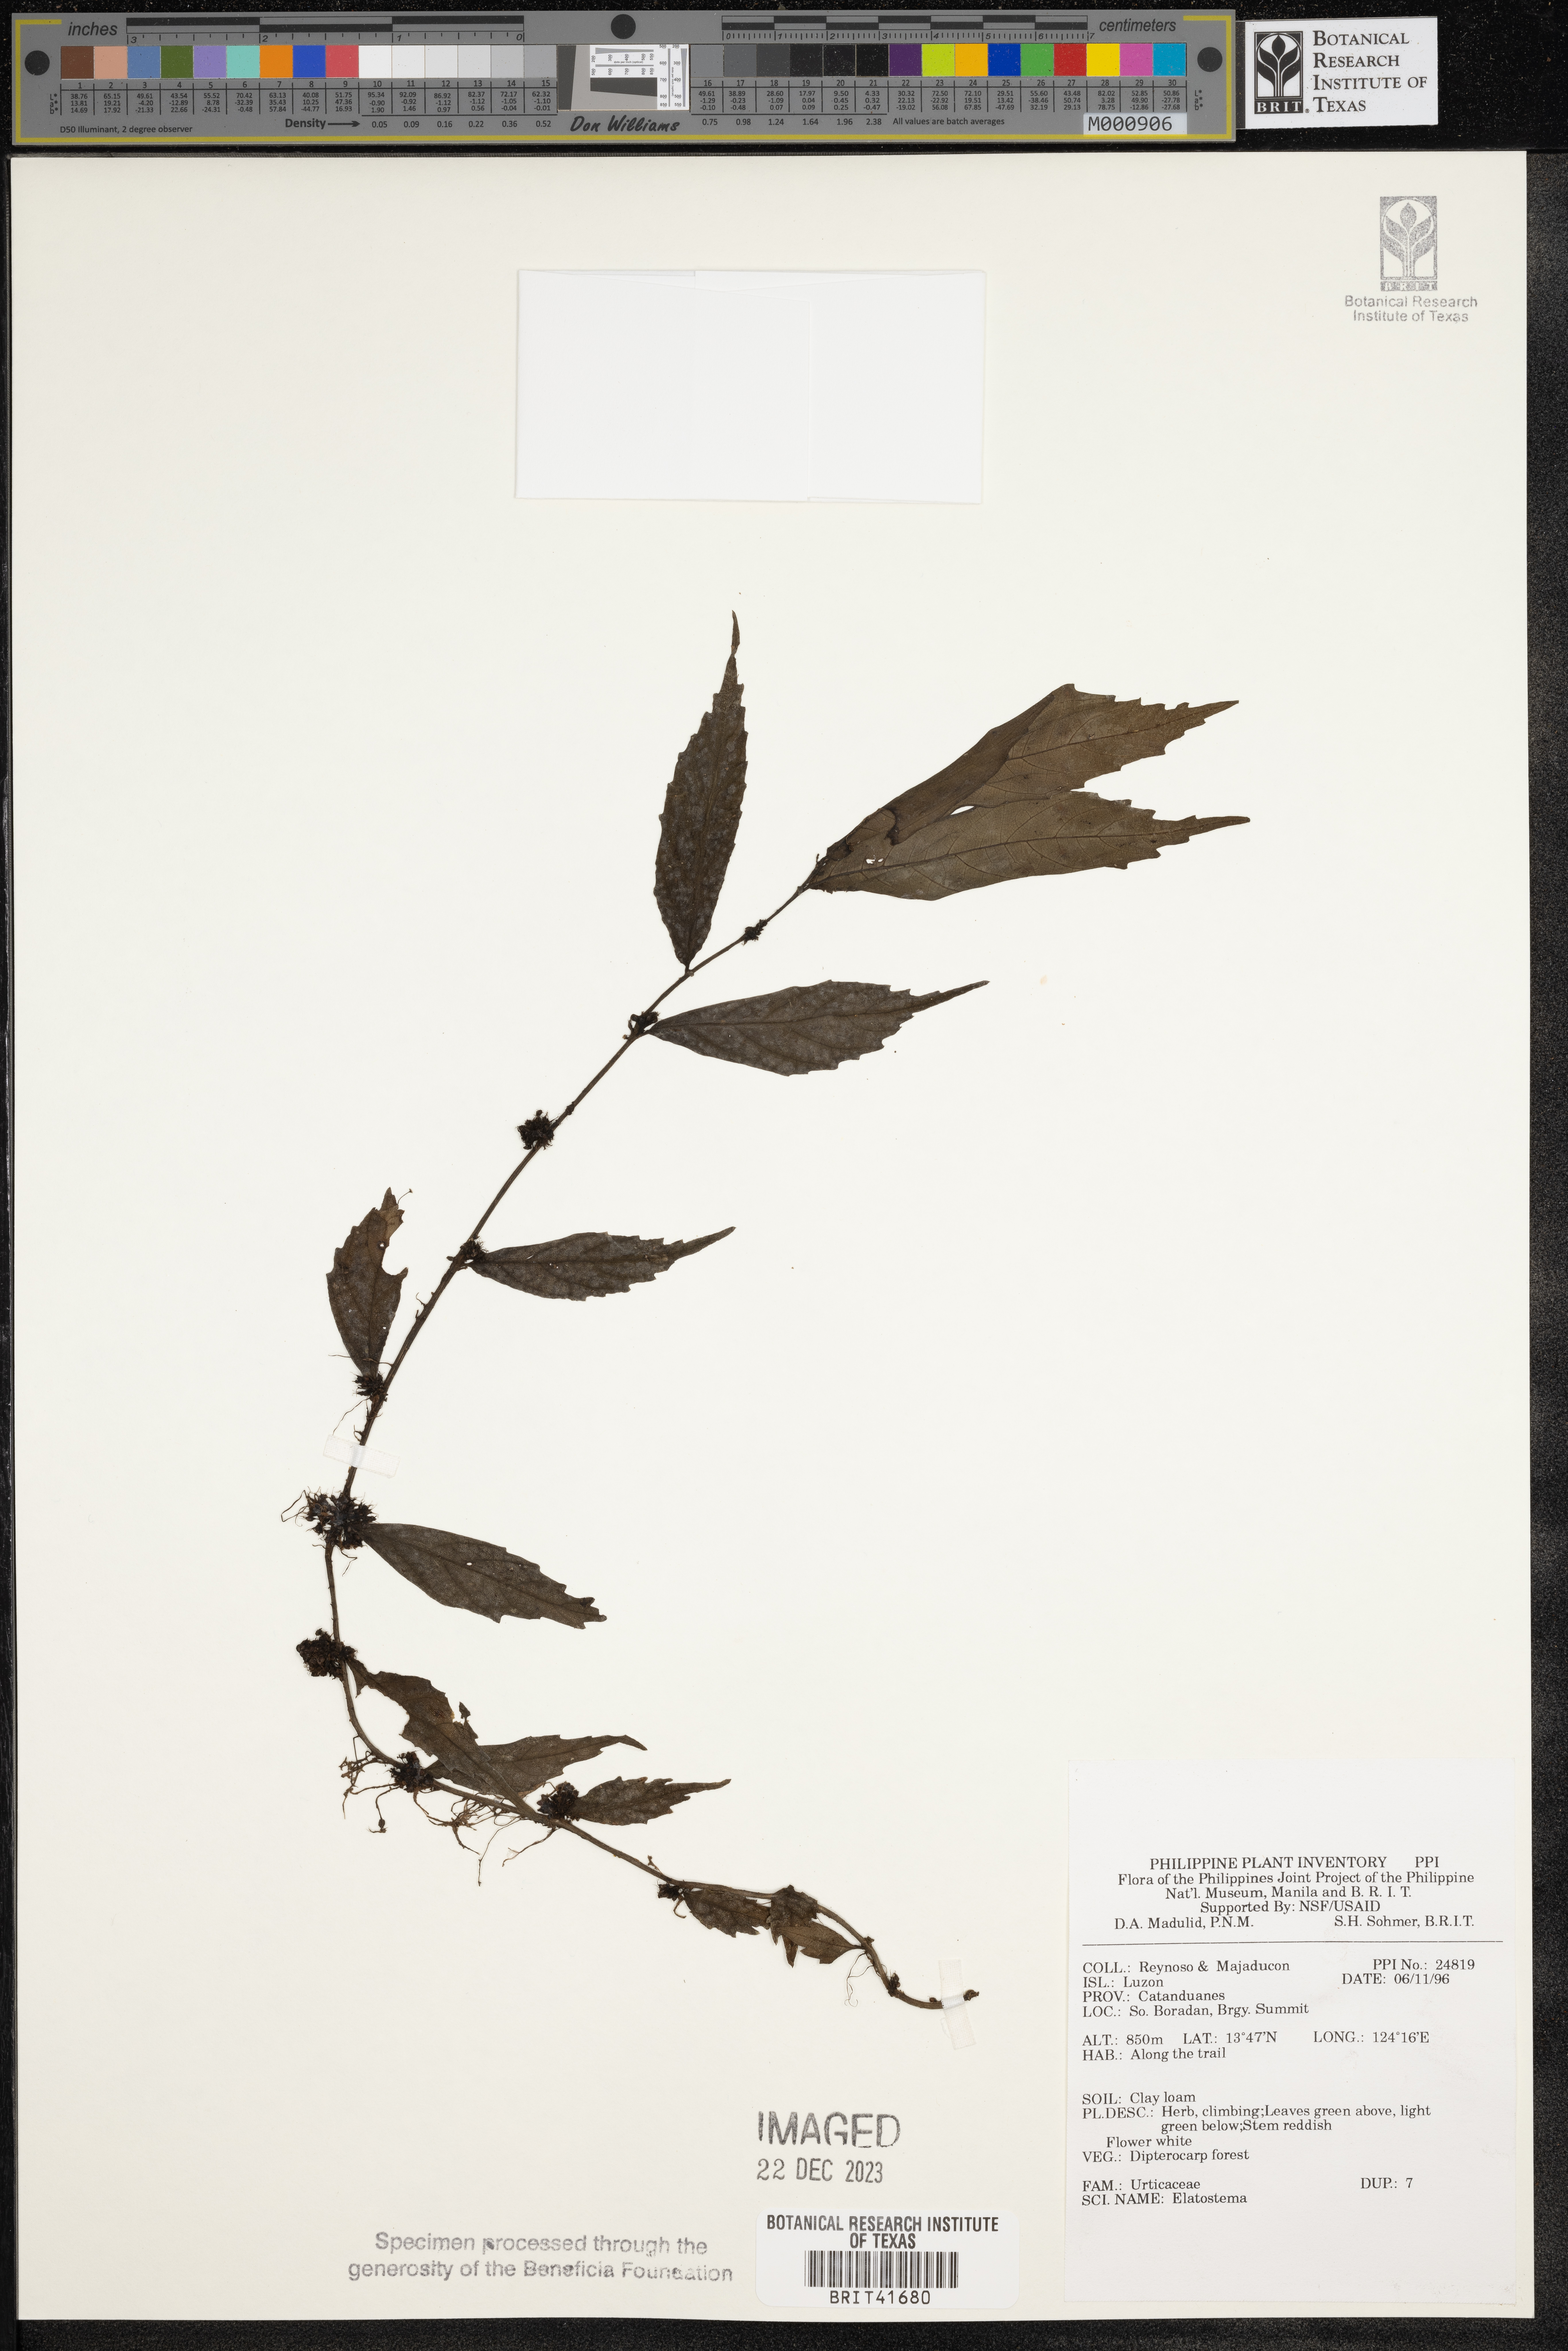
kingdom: Plantae
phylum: Tracheophyta
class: Magnoliopsida
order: Rosales
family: Urticaceae
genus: Elatostema
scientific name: Elatostema
